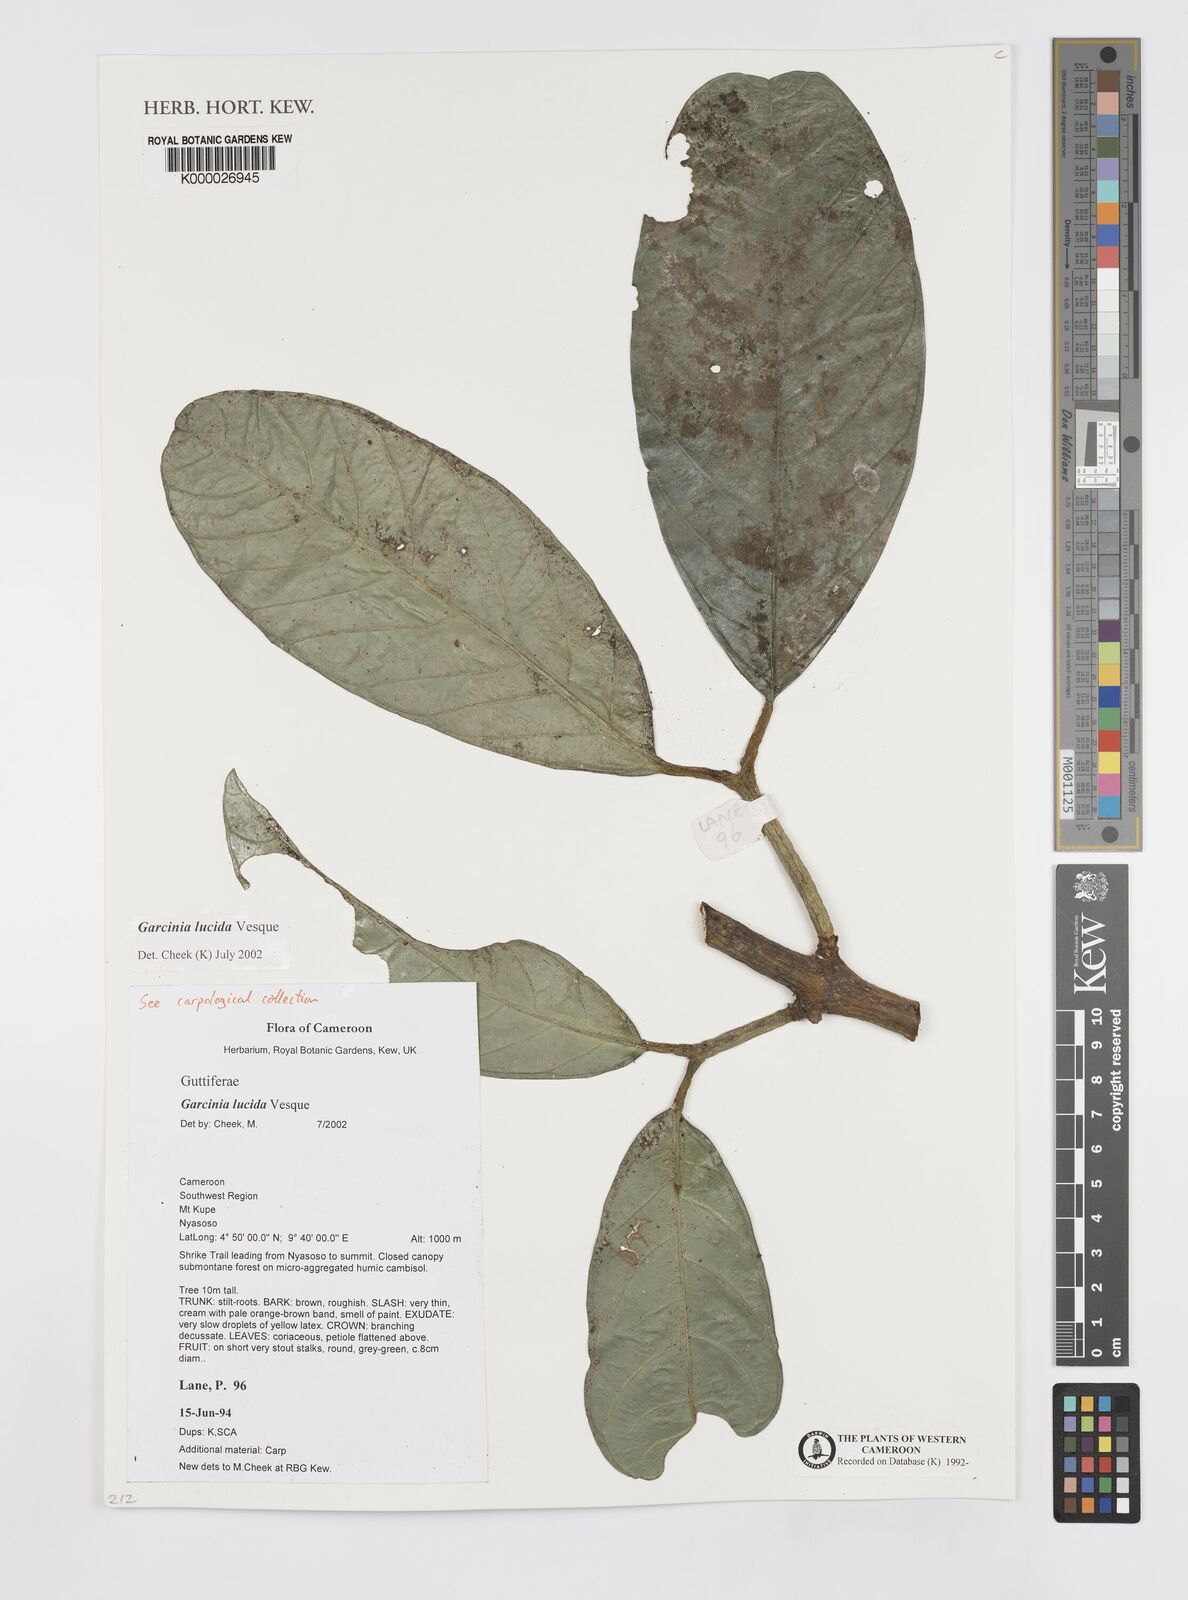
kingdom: Plantae
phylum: Tracheophyta
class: Magnoliopsida
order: Malpighiales
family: Clusiaceae
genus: Garcinia
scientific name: Garcinia lucida
